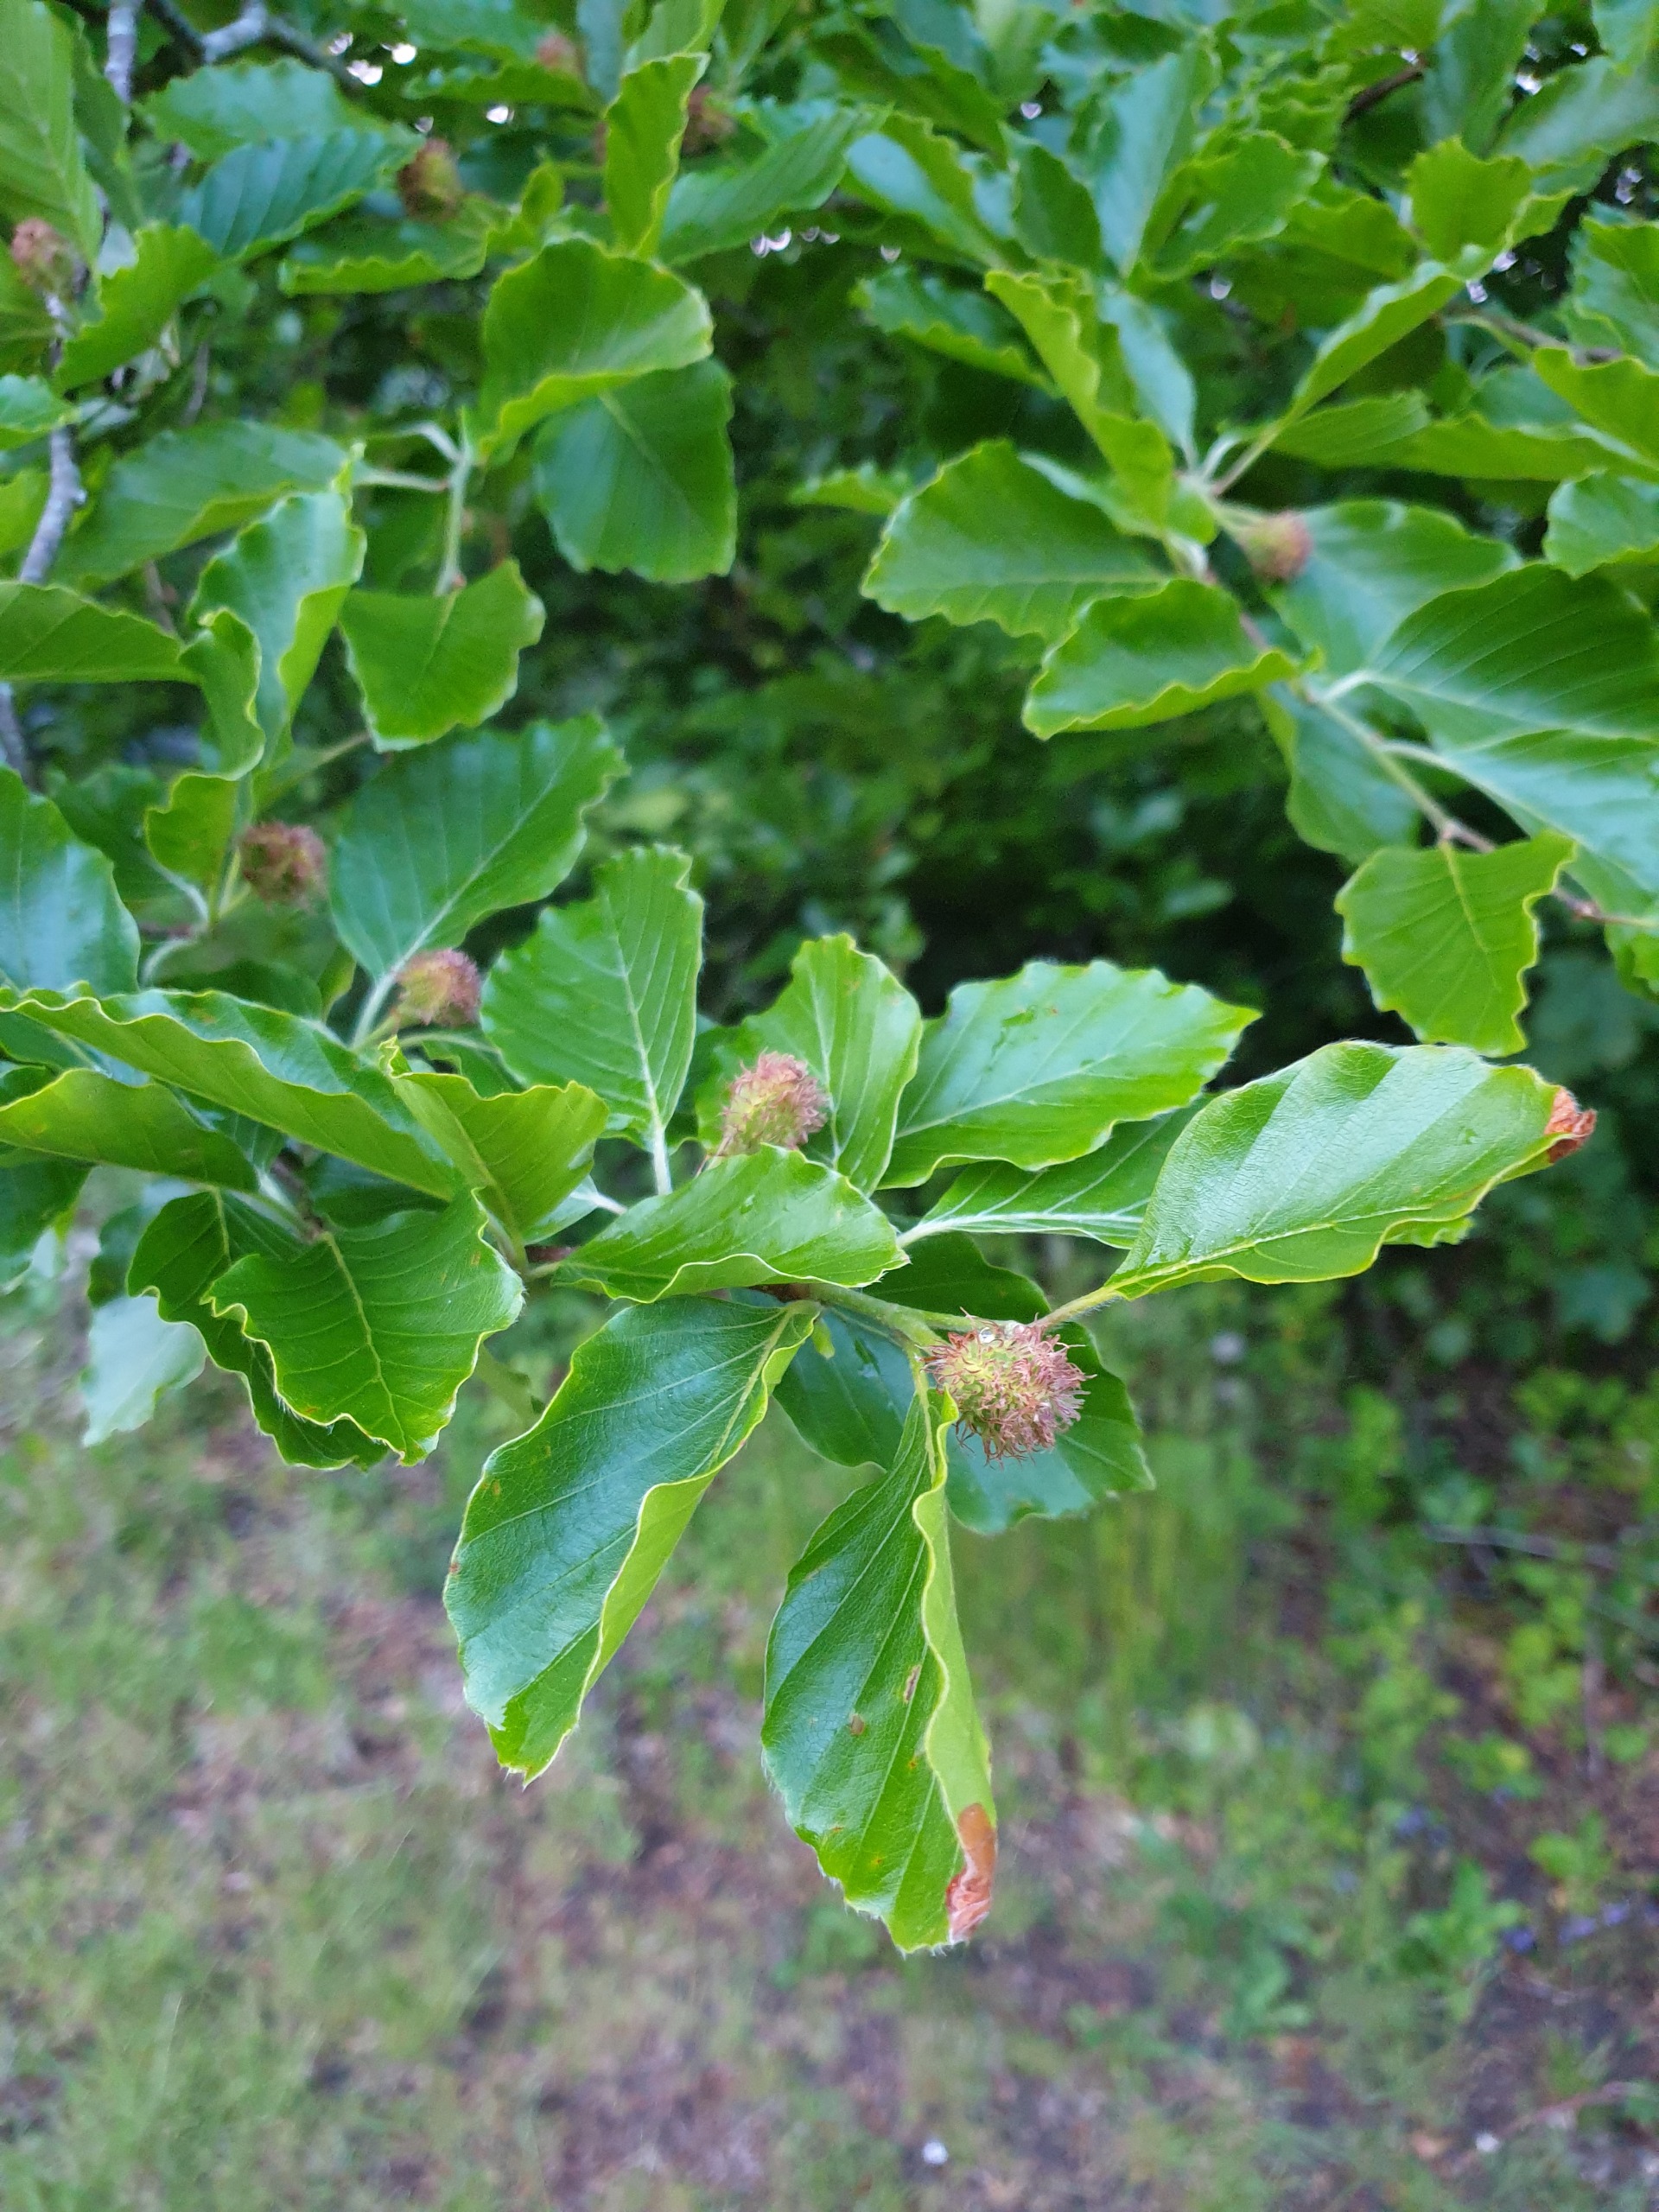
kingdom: Plantae
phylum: Tracheophyta
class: Magnoliopsida
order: Fagales
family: Fagaceae
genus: Fagus
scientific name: Fagus sylvatica
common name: Bøg
